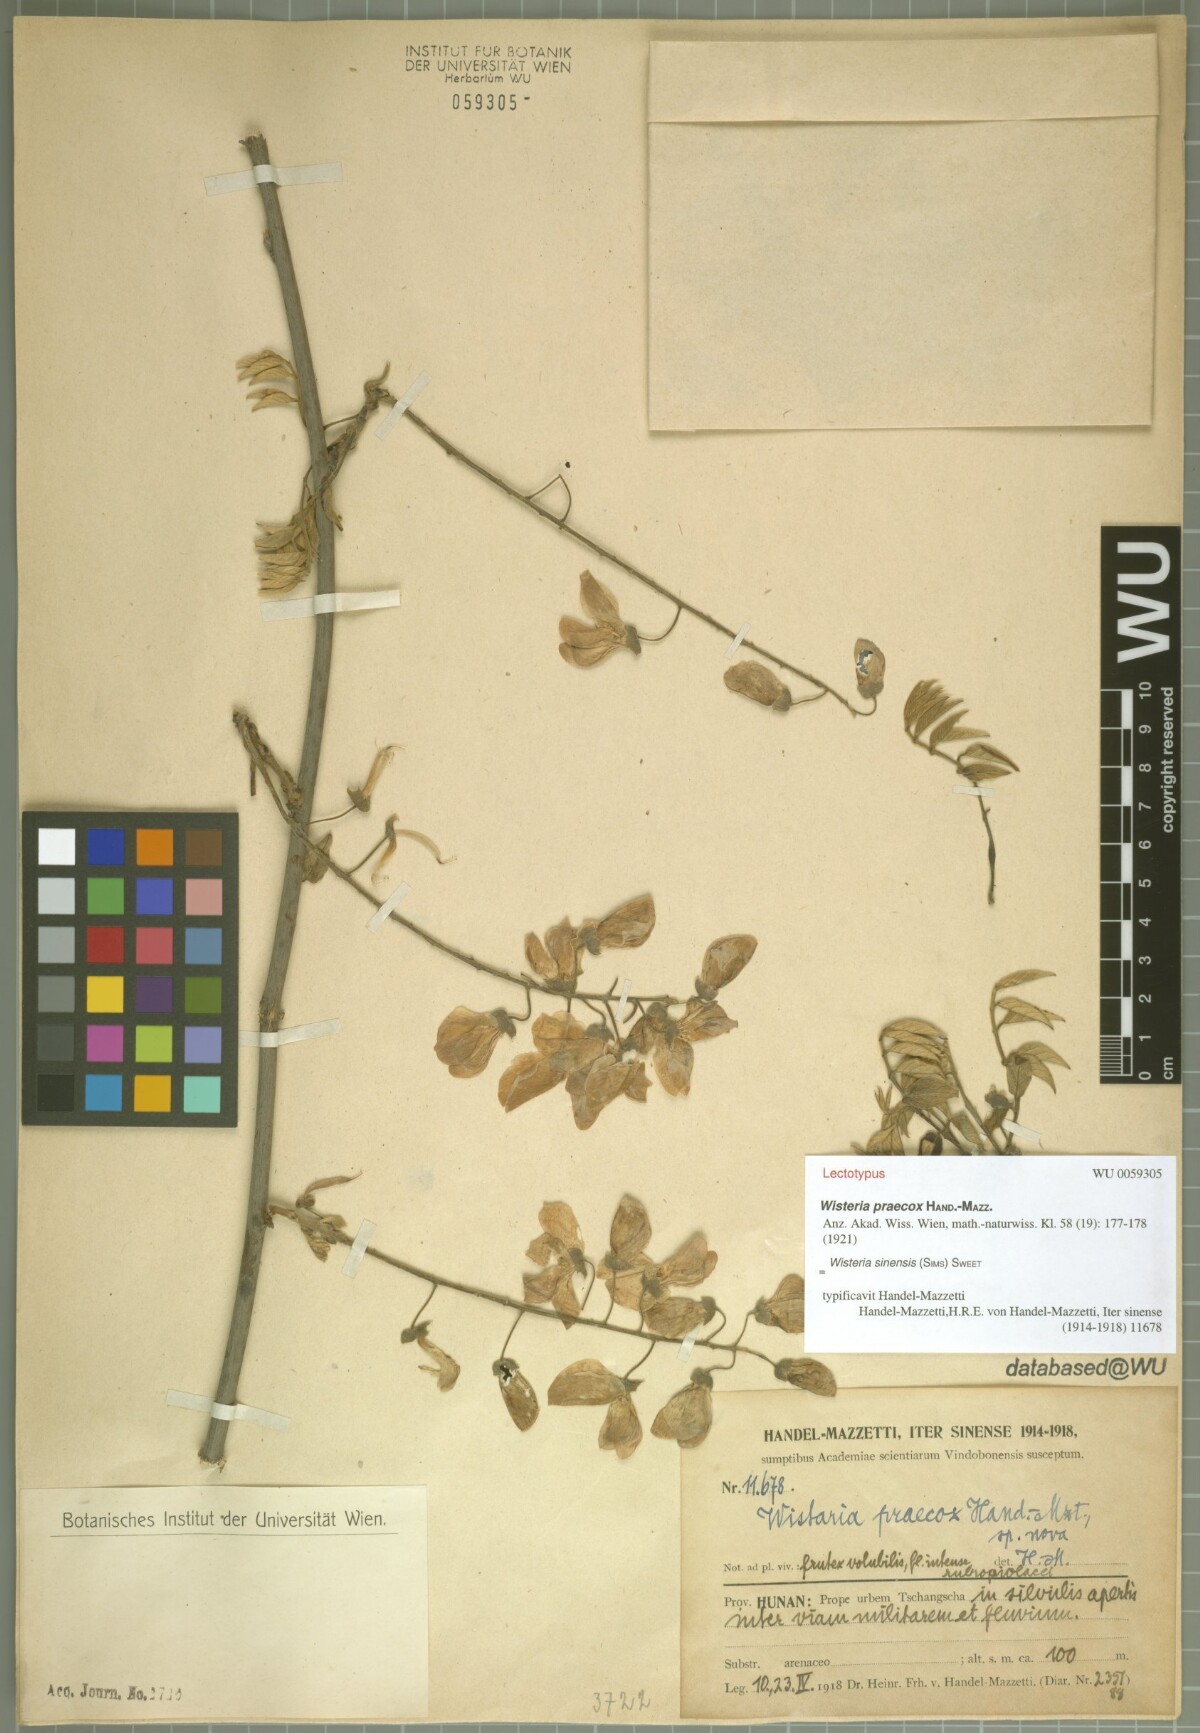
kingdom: Plantae
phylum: Tracheophyta
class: Magnoliopsida
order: Fabales
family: Fabaceae
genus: Wisteria
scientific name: Wisteria sinensis
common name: Chinese wisteria
